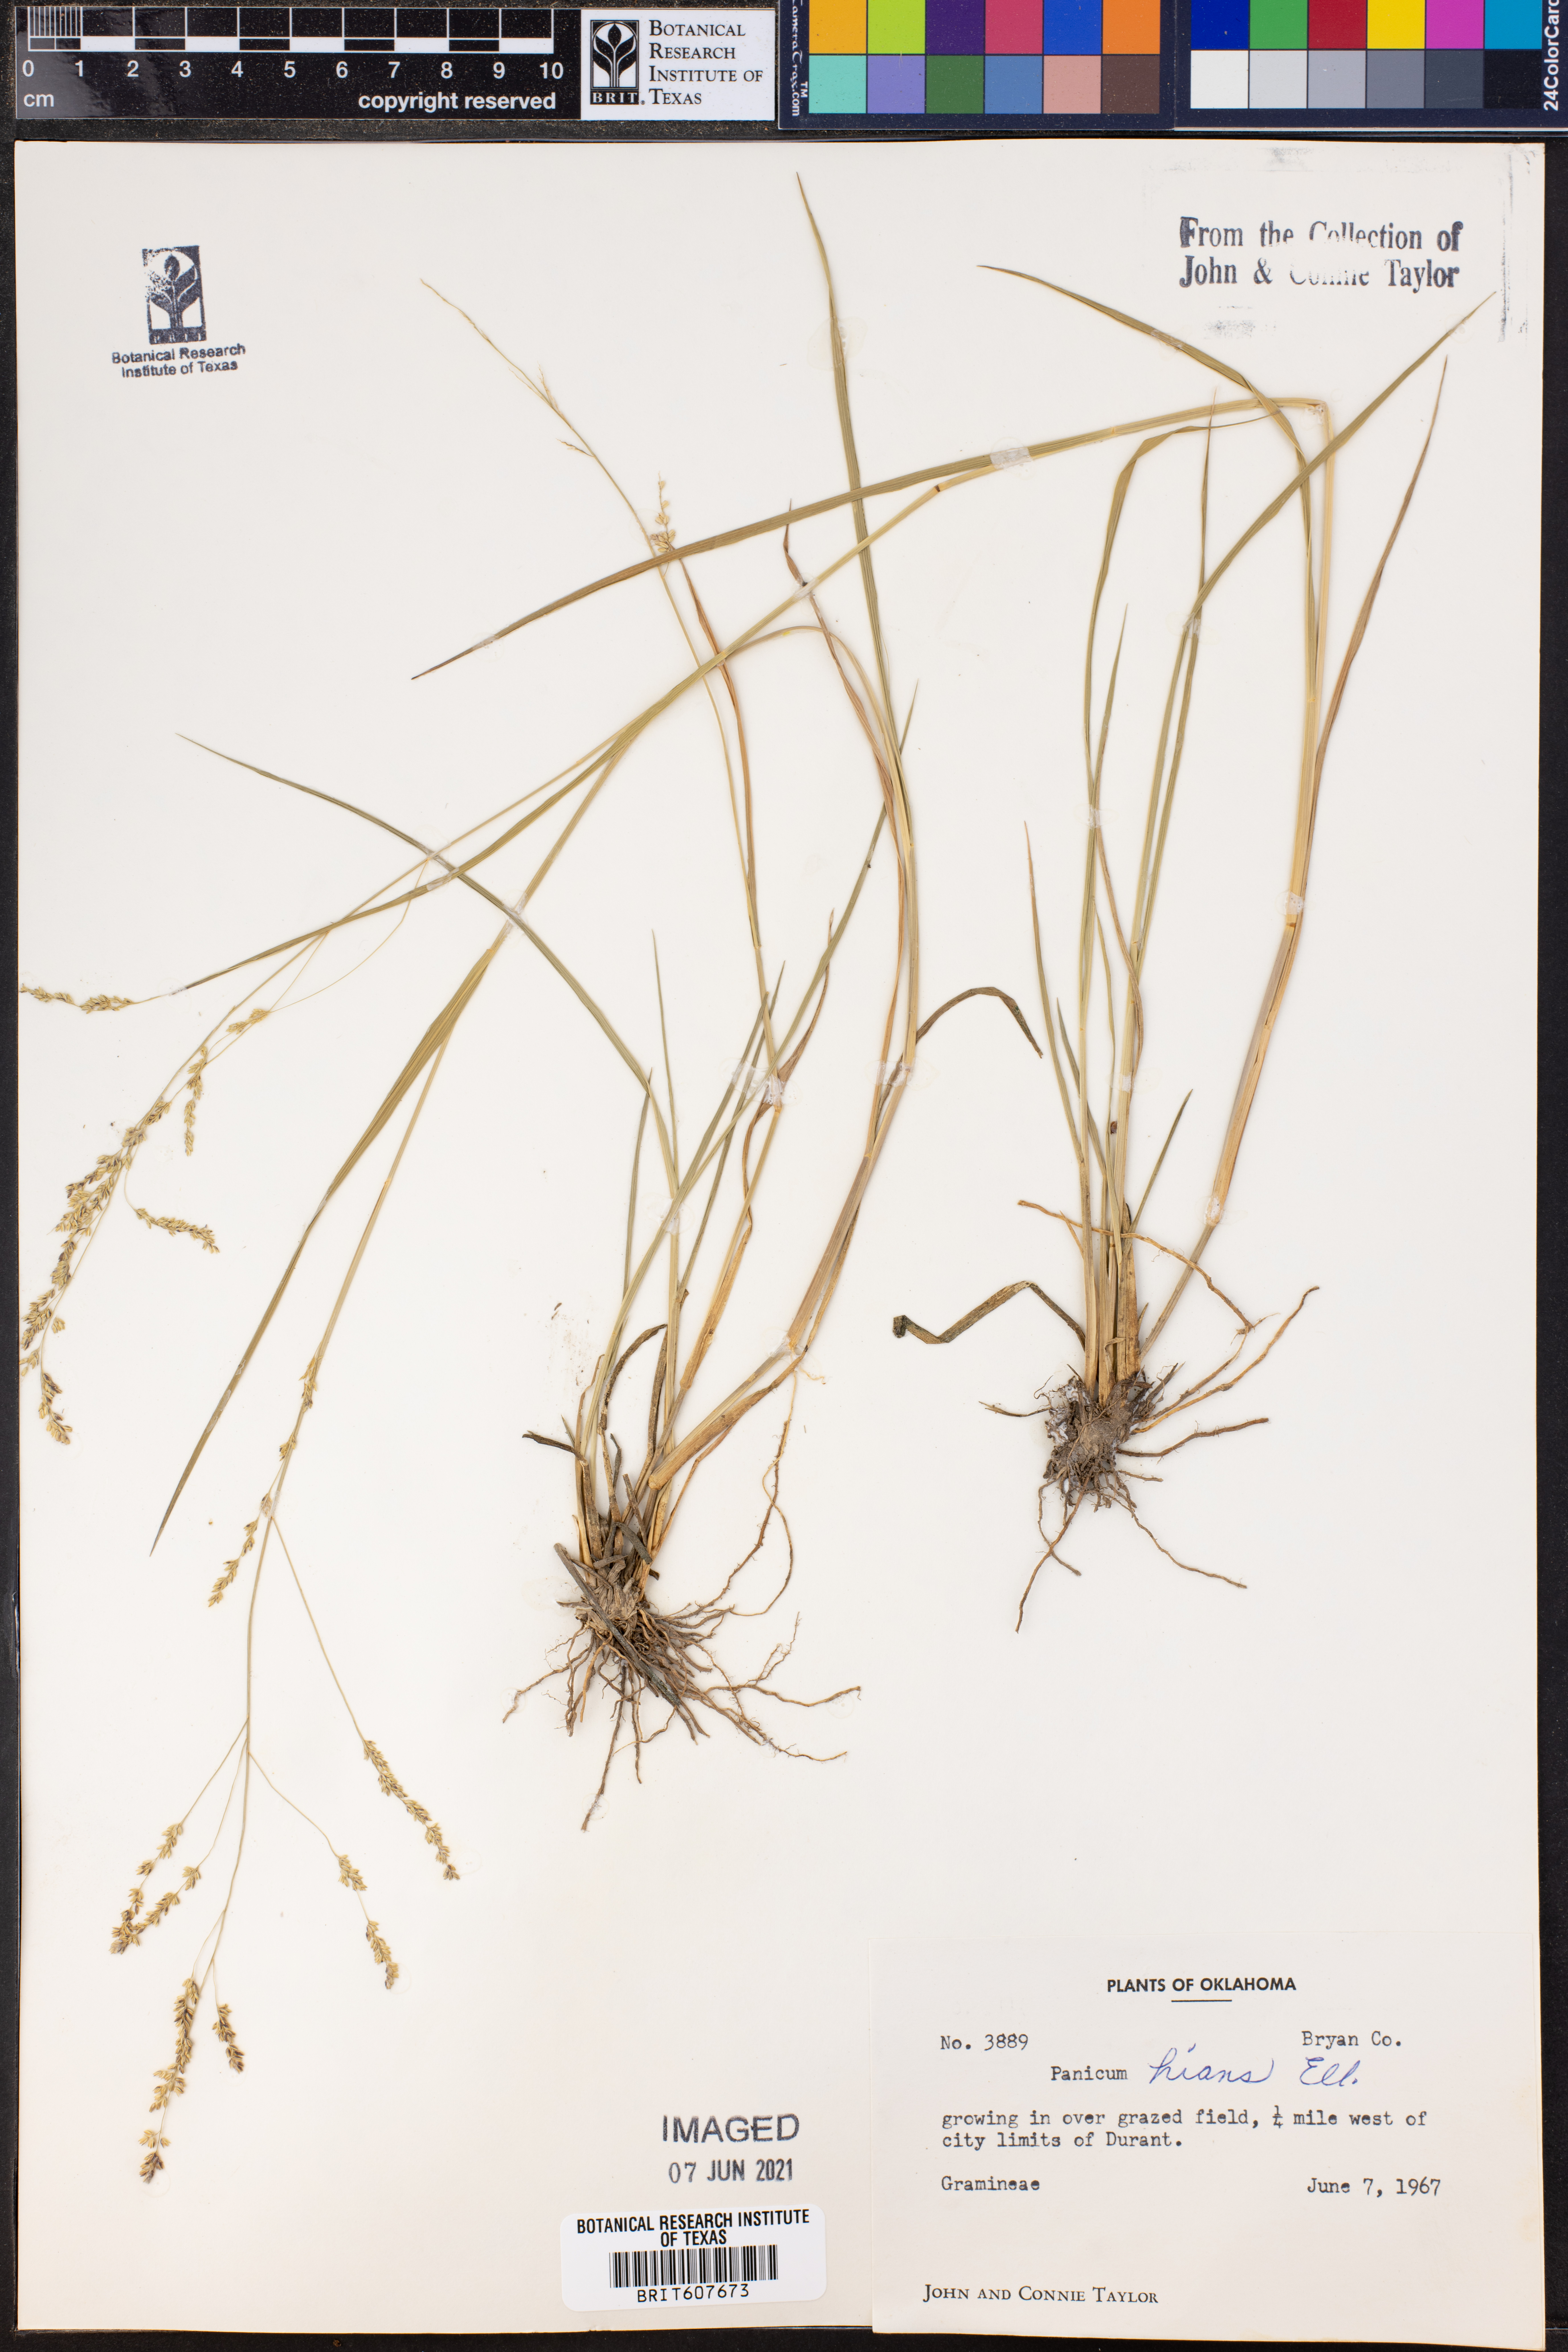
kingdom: Plantae
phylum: Tracheophyta
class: Liliopsida
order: Poales
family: Poaceae
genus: Coleataenia
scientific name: Coleataenia stenodes
